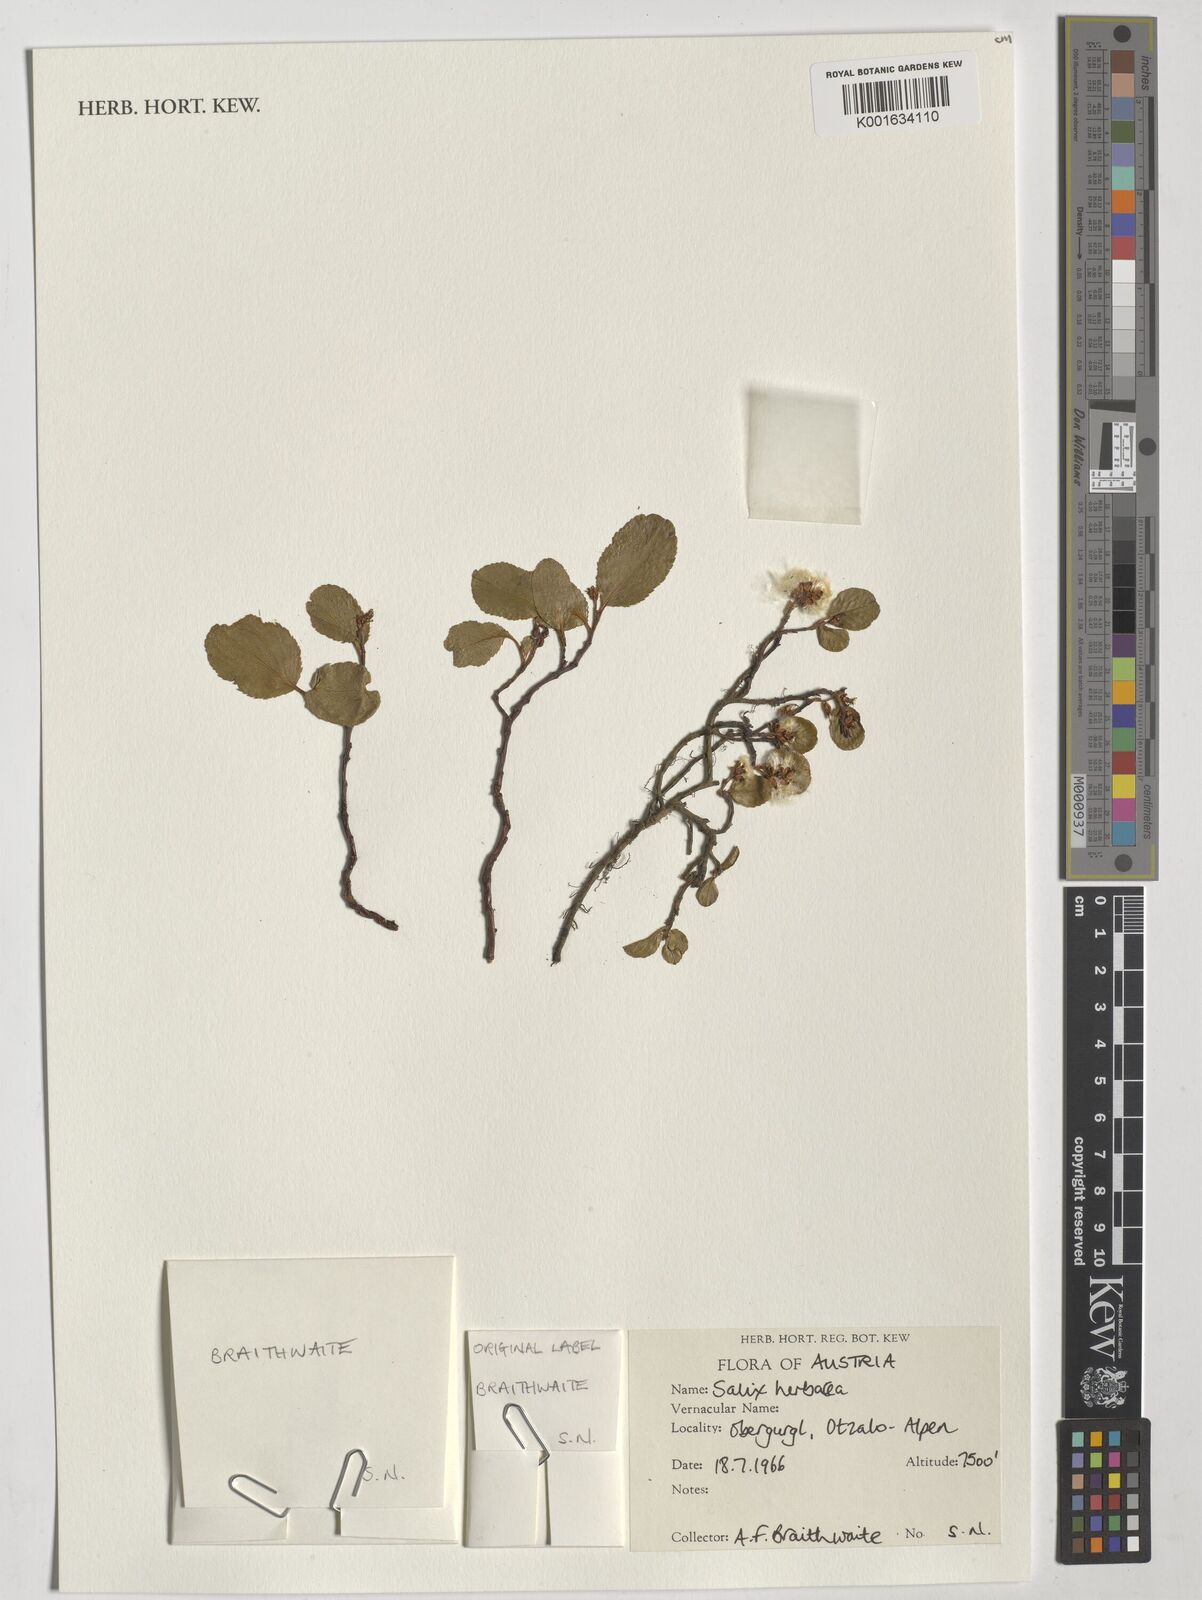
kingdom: Plantae
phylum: Tracheophyta
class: Magnoliopsida
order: Malpighiales
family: Salicaceae
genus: Salix
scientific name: Salix herbacea
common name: Dwarf willow
